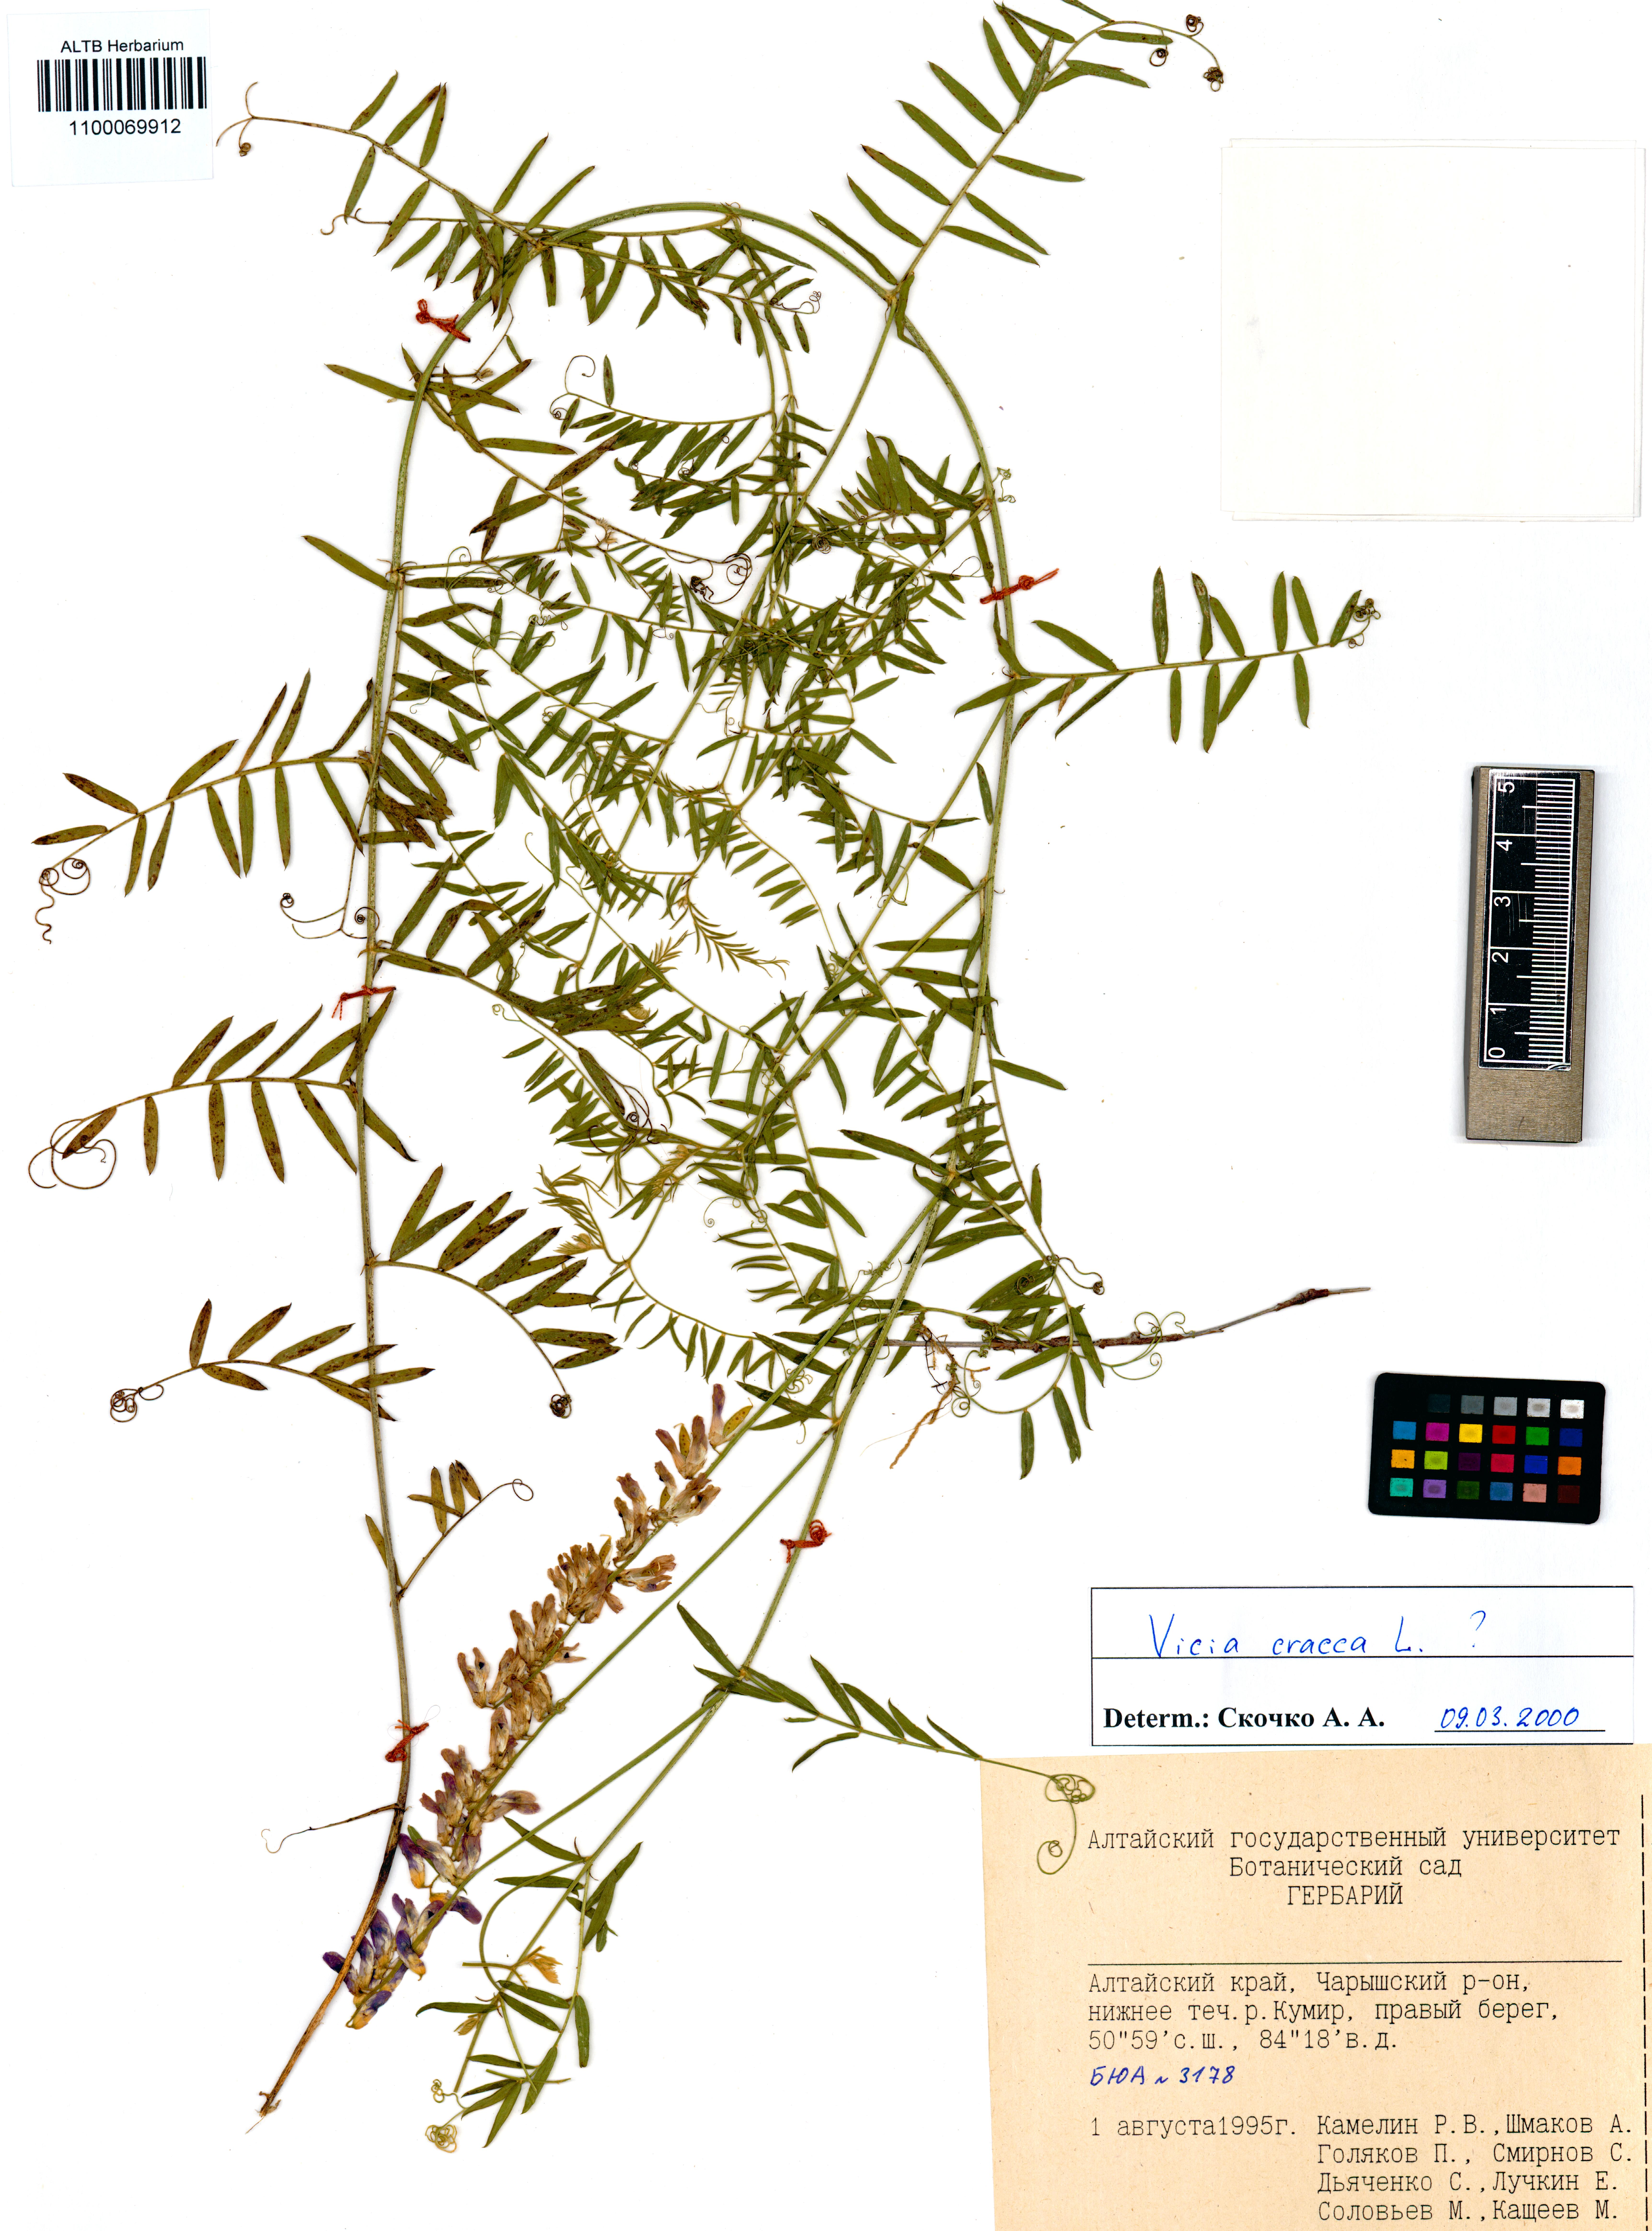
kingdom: Plantae
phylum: Tracheophyta
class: Magnoliopsida
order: Fabales
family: Fabaceae
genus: Vicia
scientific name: Vicia cracca
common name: Bird vetch
